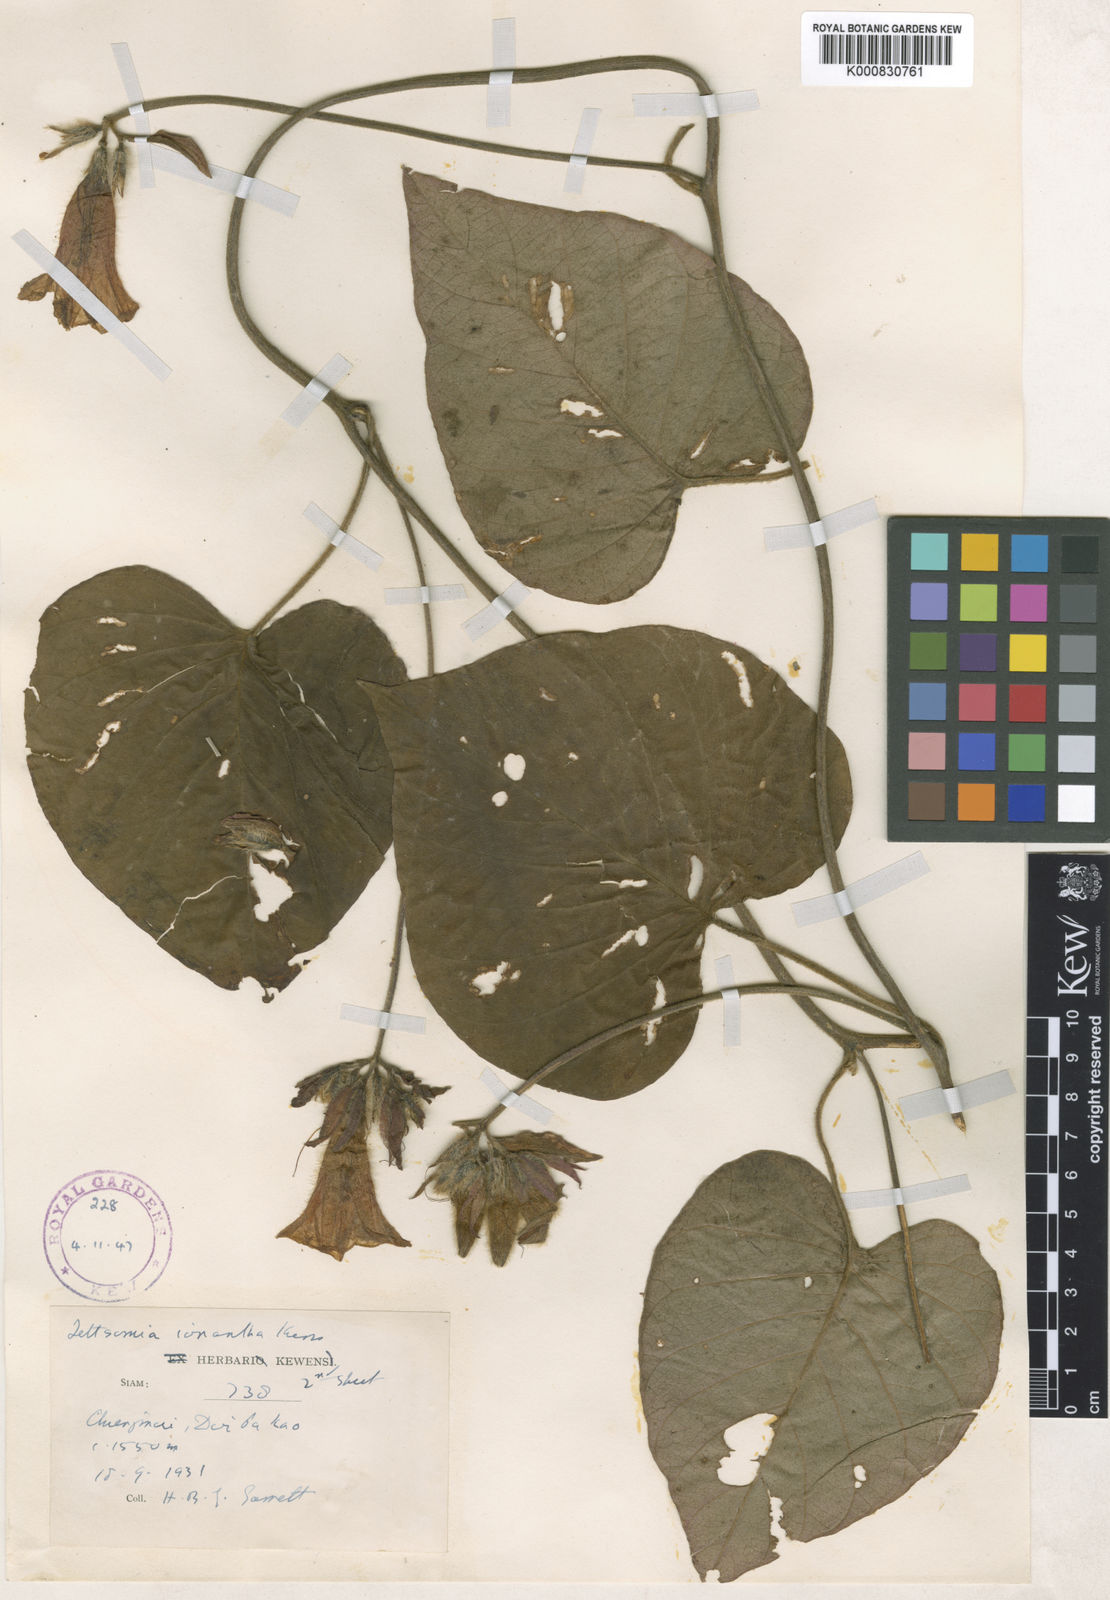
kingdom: Plantae
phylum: Tracheophyta
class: Magnoliopsida
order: Solanales
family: Convolvulaceae
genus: Ipomoea
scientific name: Ipomoea ionantha
